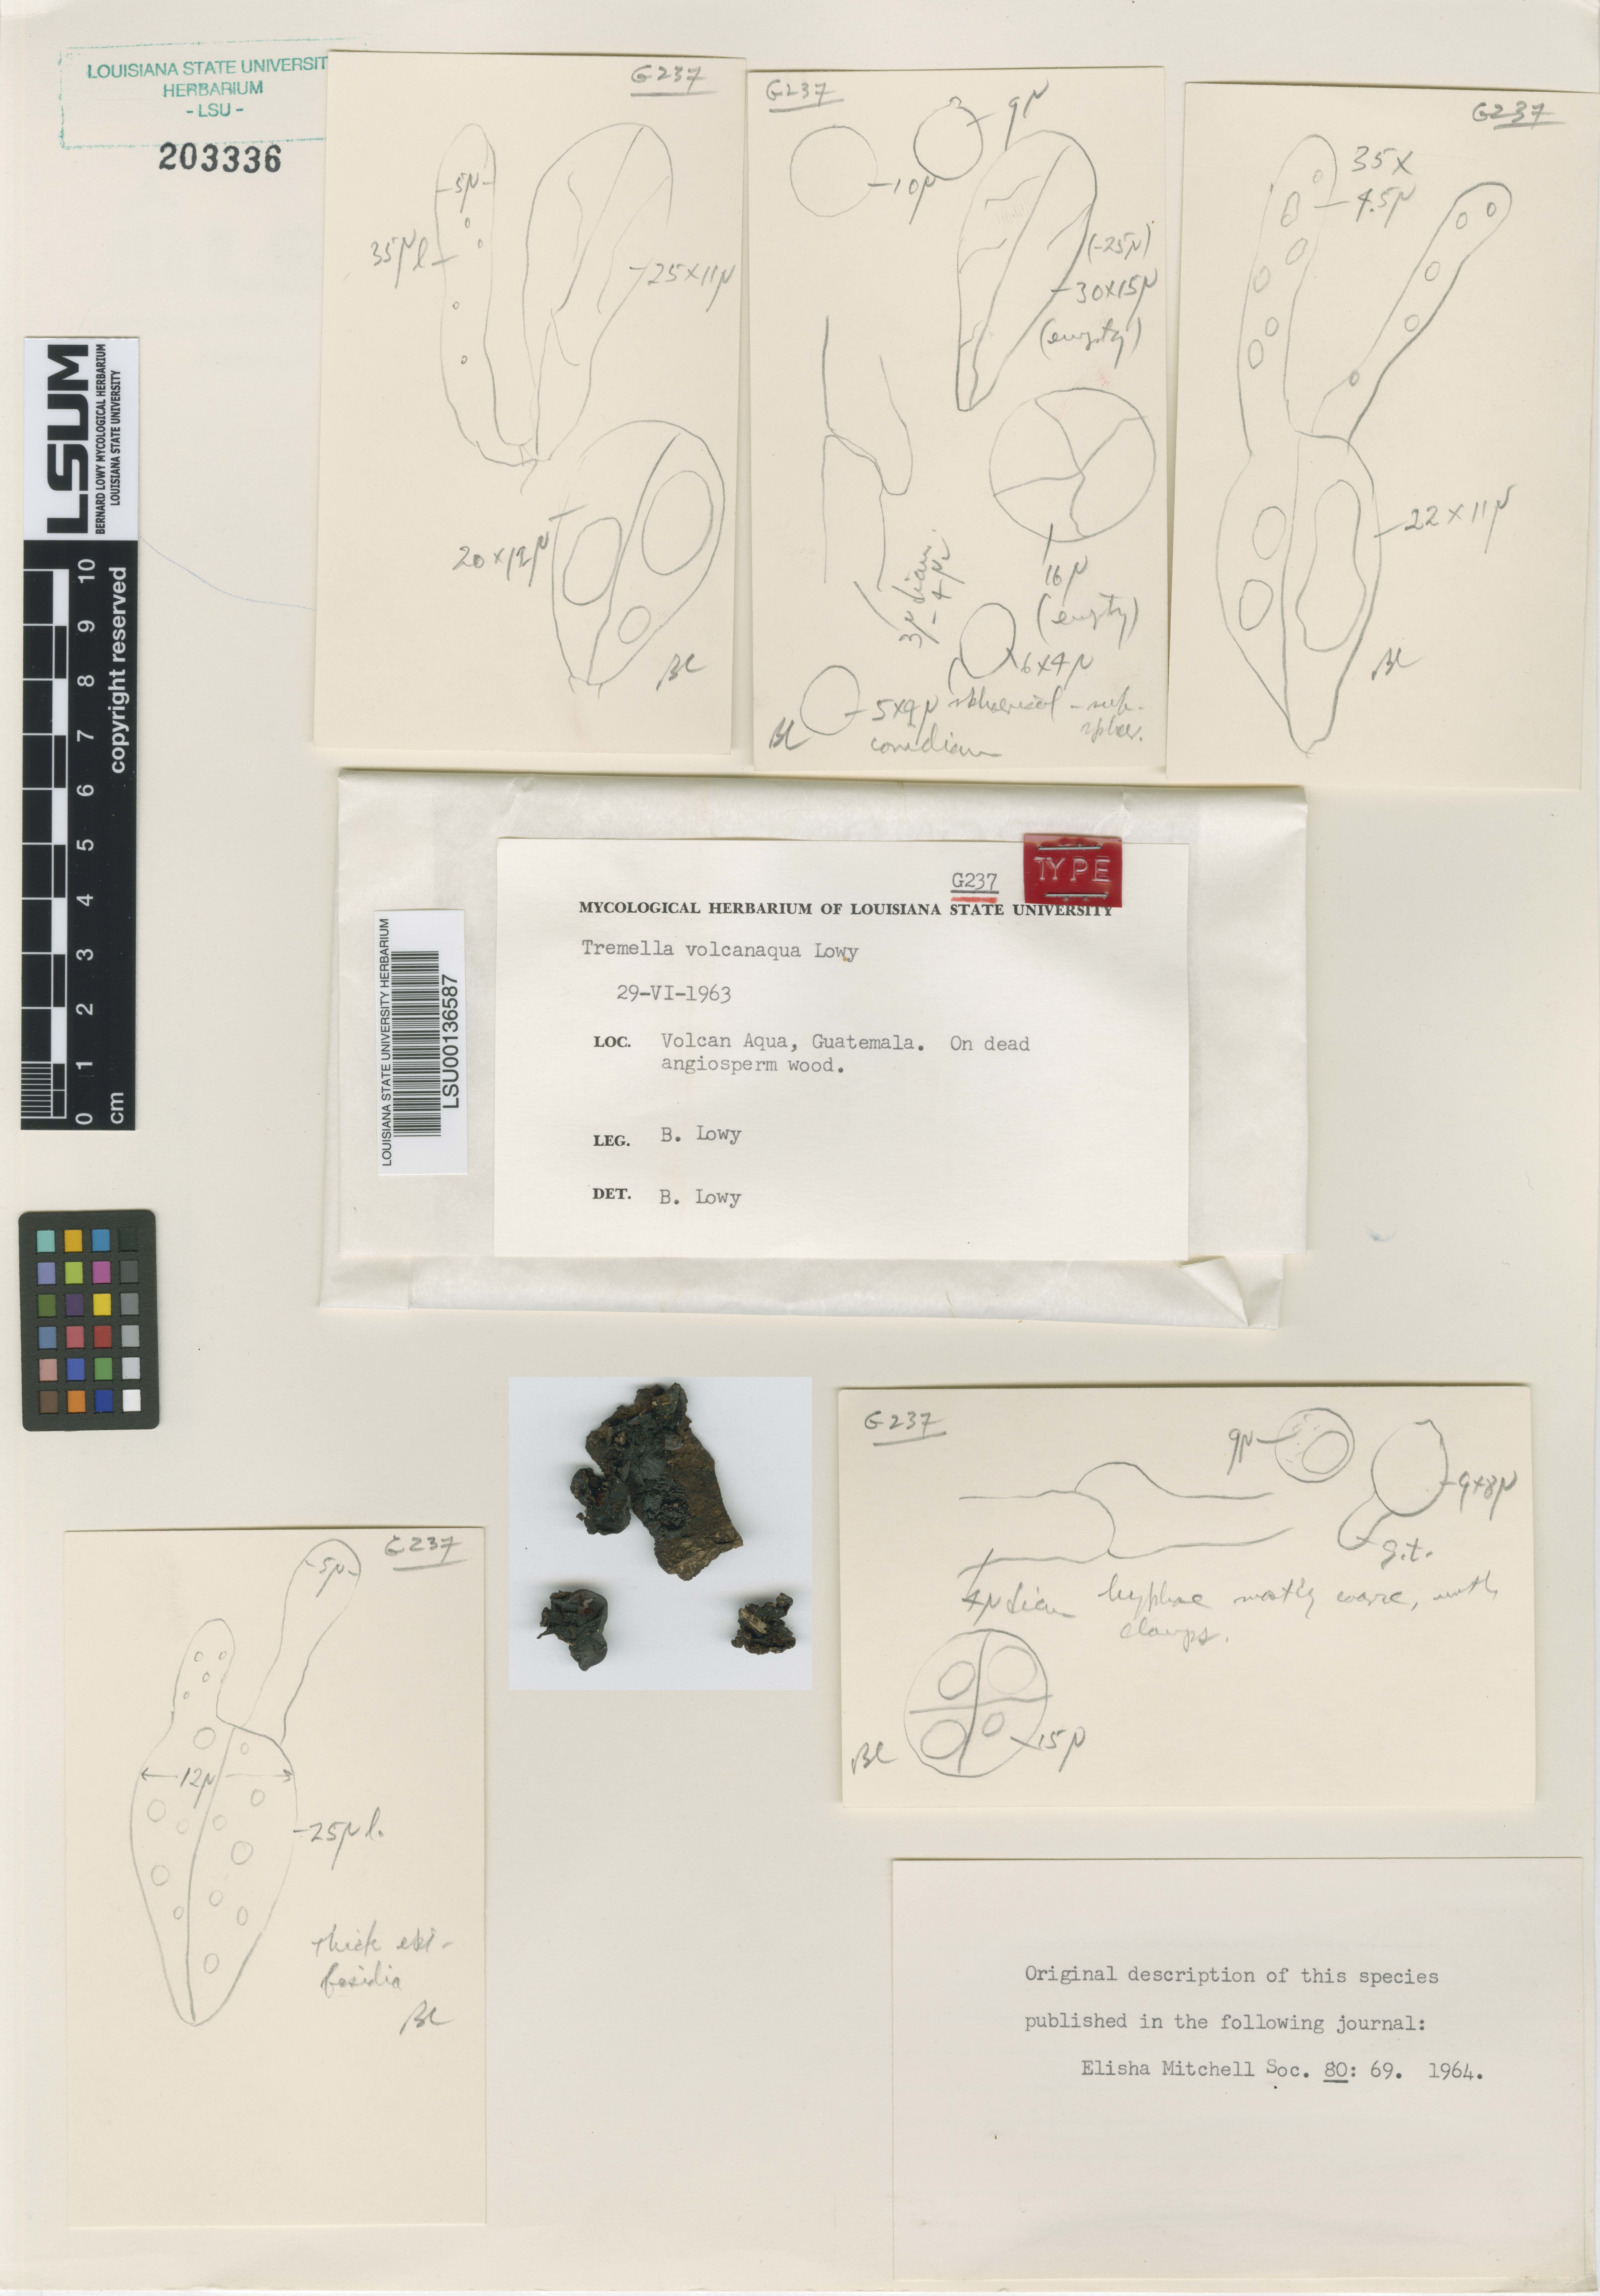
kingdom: Fungi
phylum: Basidiomycota
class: Tremellomycetes
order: Tremellales
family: Tremellaceae
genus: Tremella
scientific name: Tremella volcanaqua
